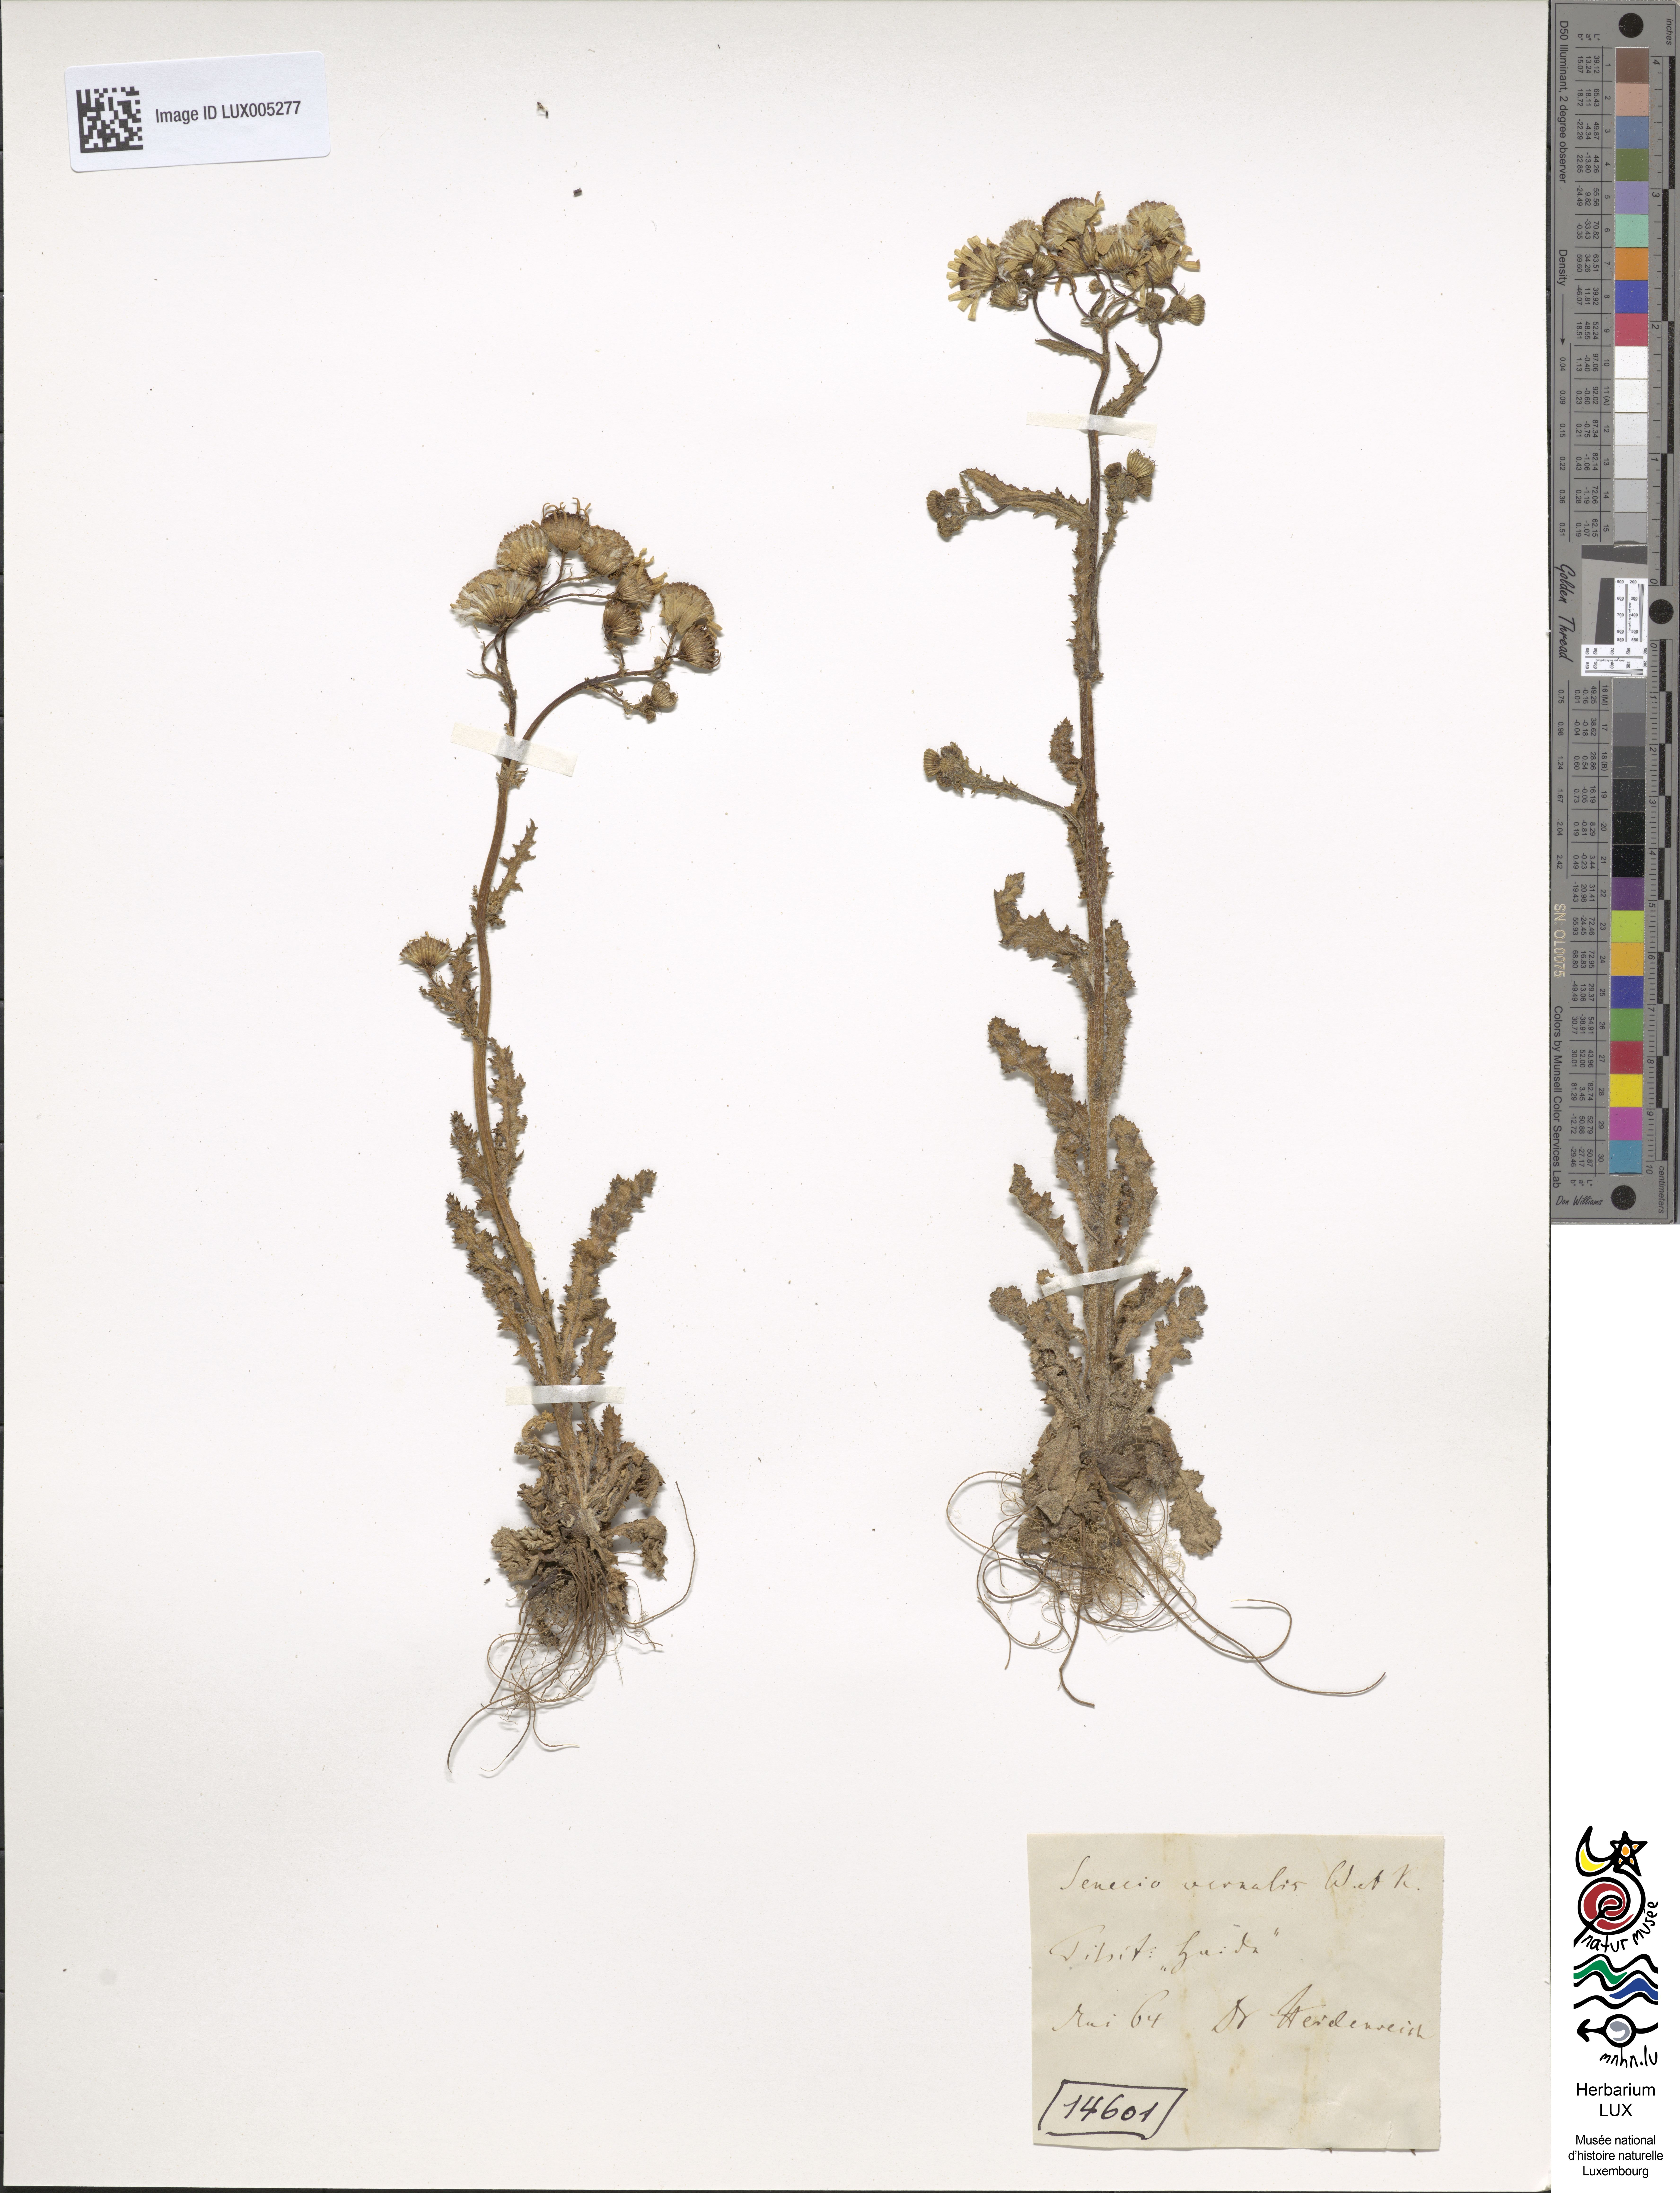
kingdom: Plantae
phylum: Tracheophyta
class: Magnoliopsida
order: Asterales
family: Asteraceae
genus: Senecio
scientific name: Senecio vernalis
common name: Eastern groundsel
